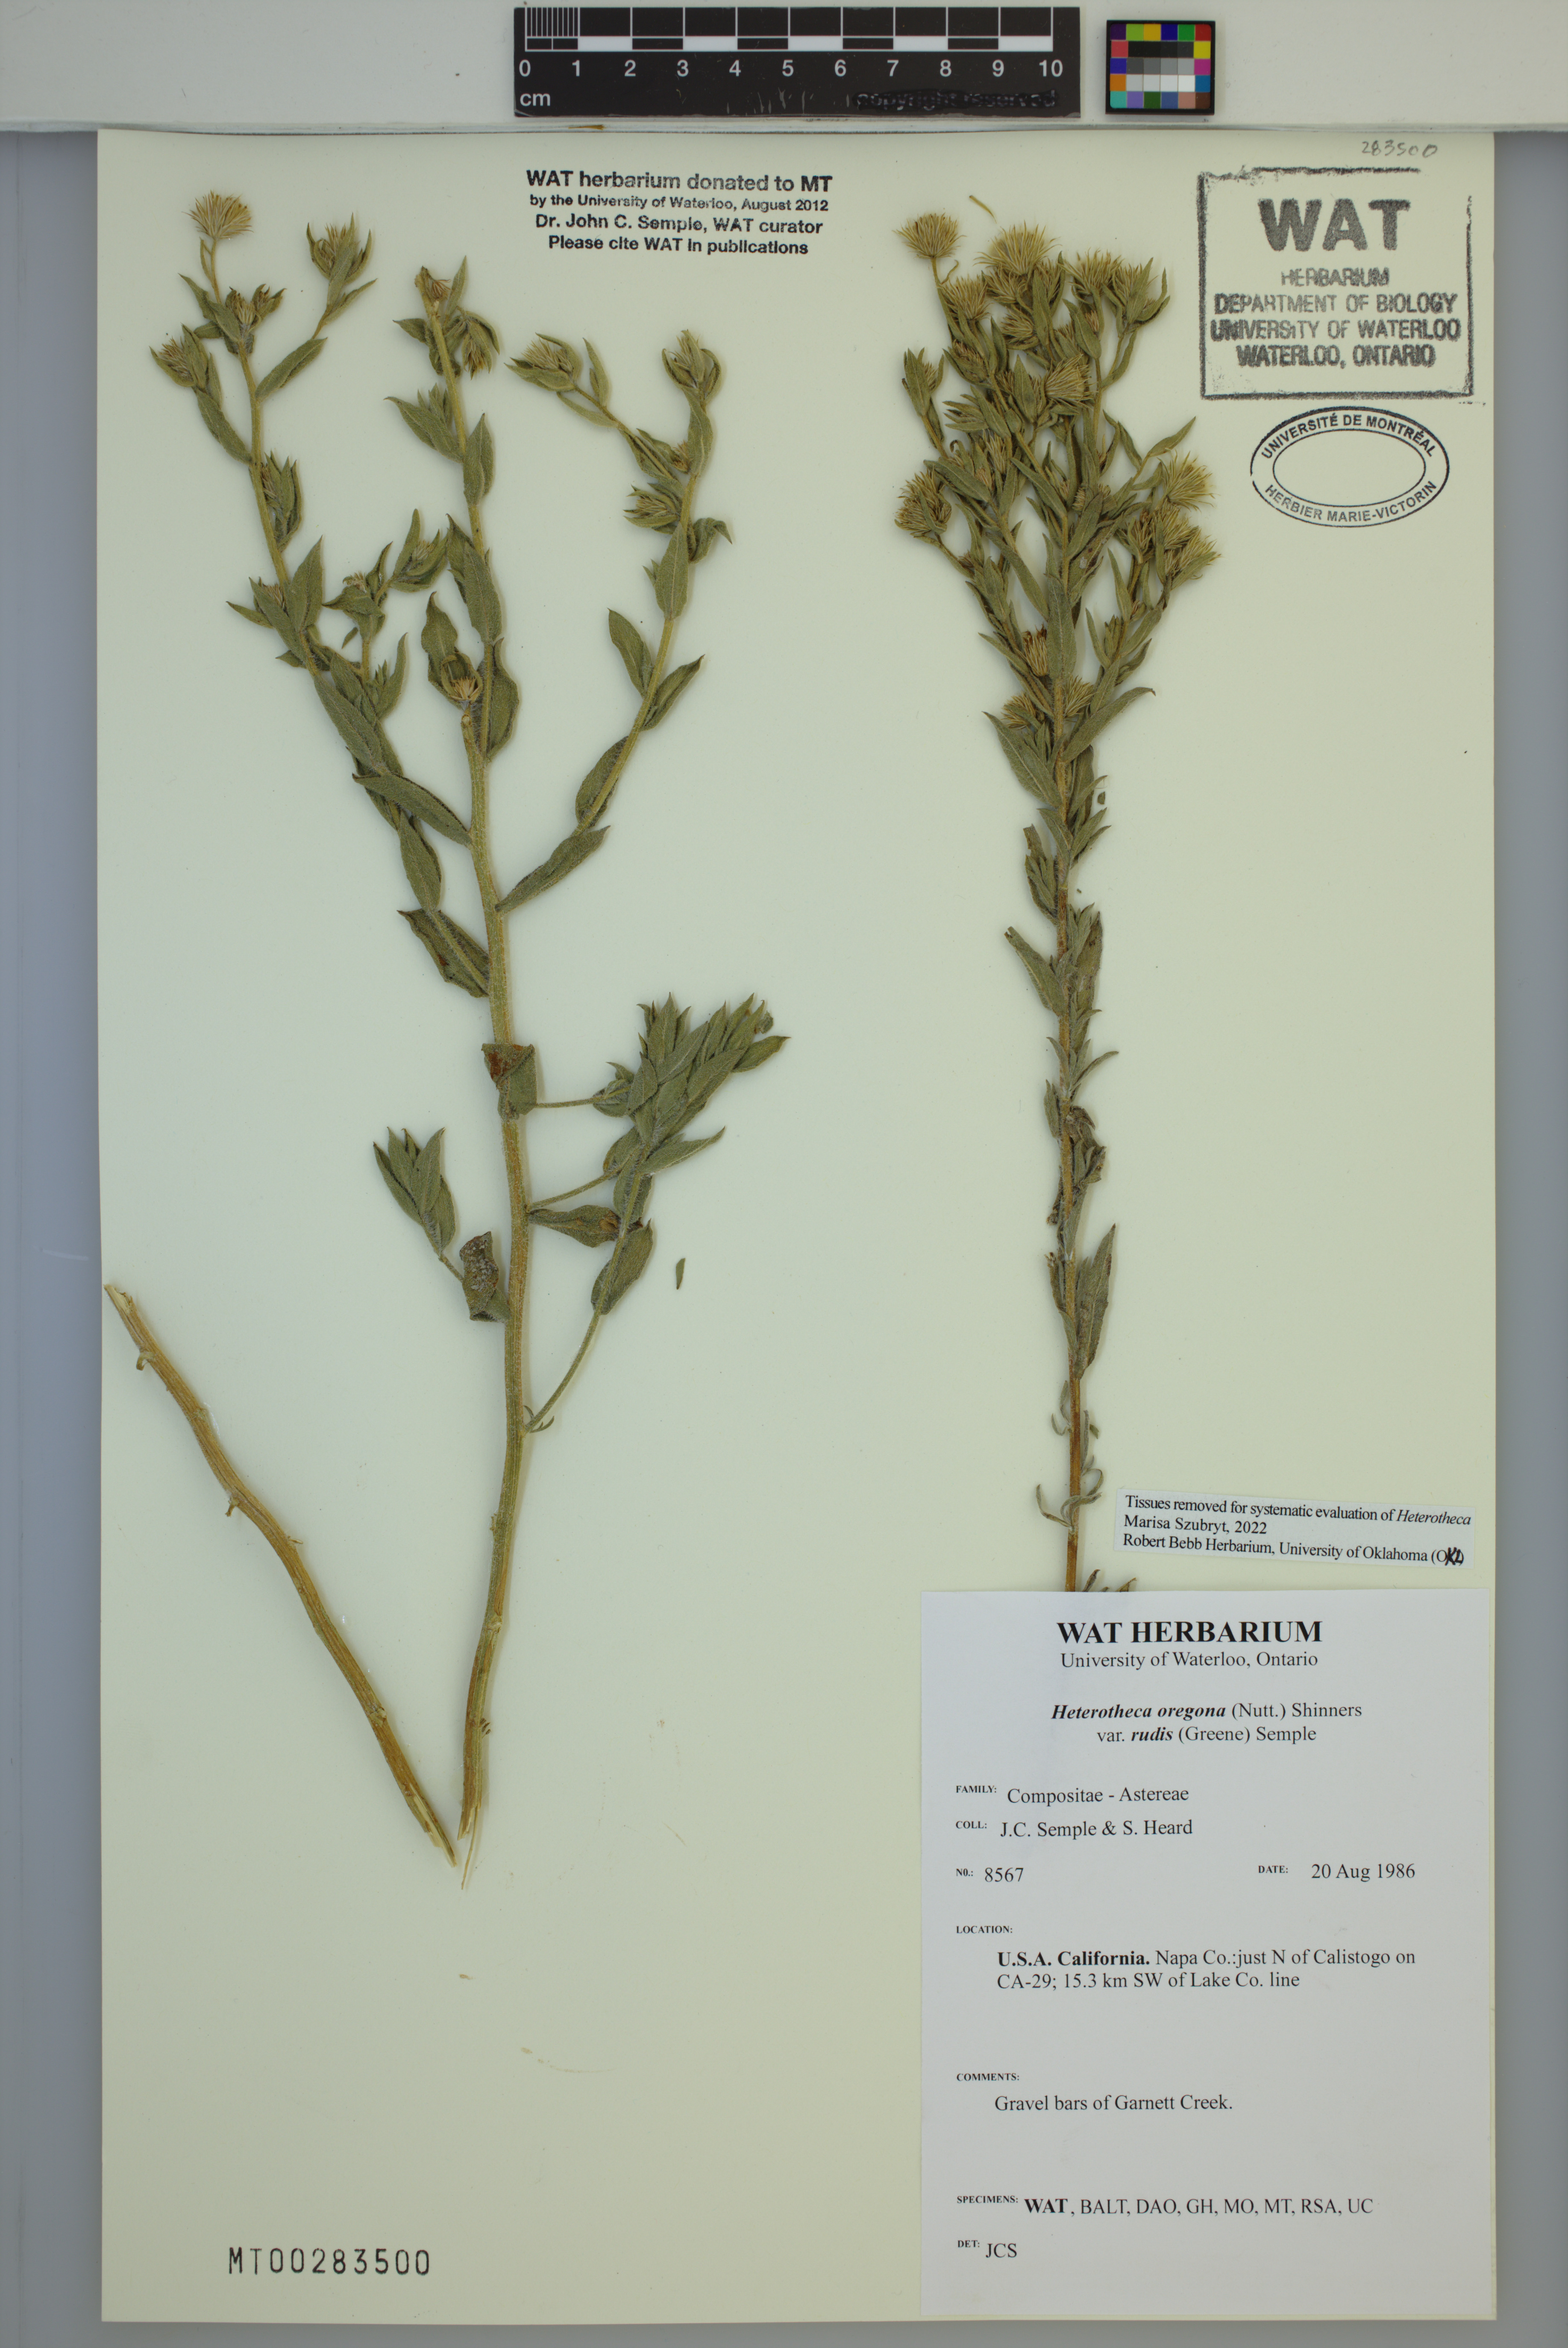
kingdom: Plantae
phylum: Tracheophyta
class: Magnoliopsida
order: Asterales
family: Asteraceae
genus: Heterotheca
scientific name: Heterotheca rudis
